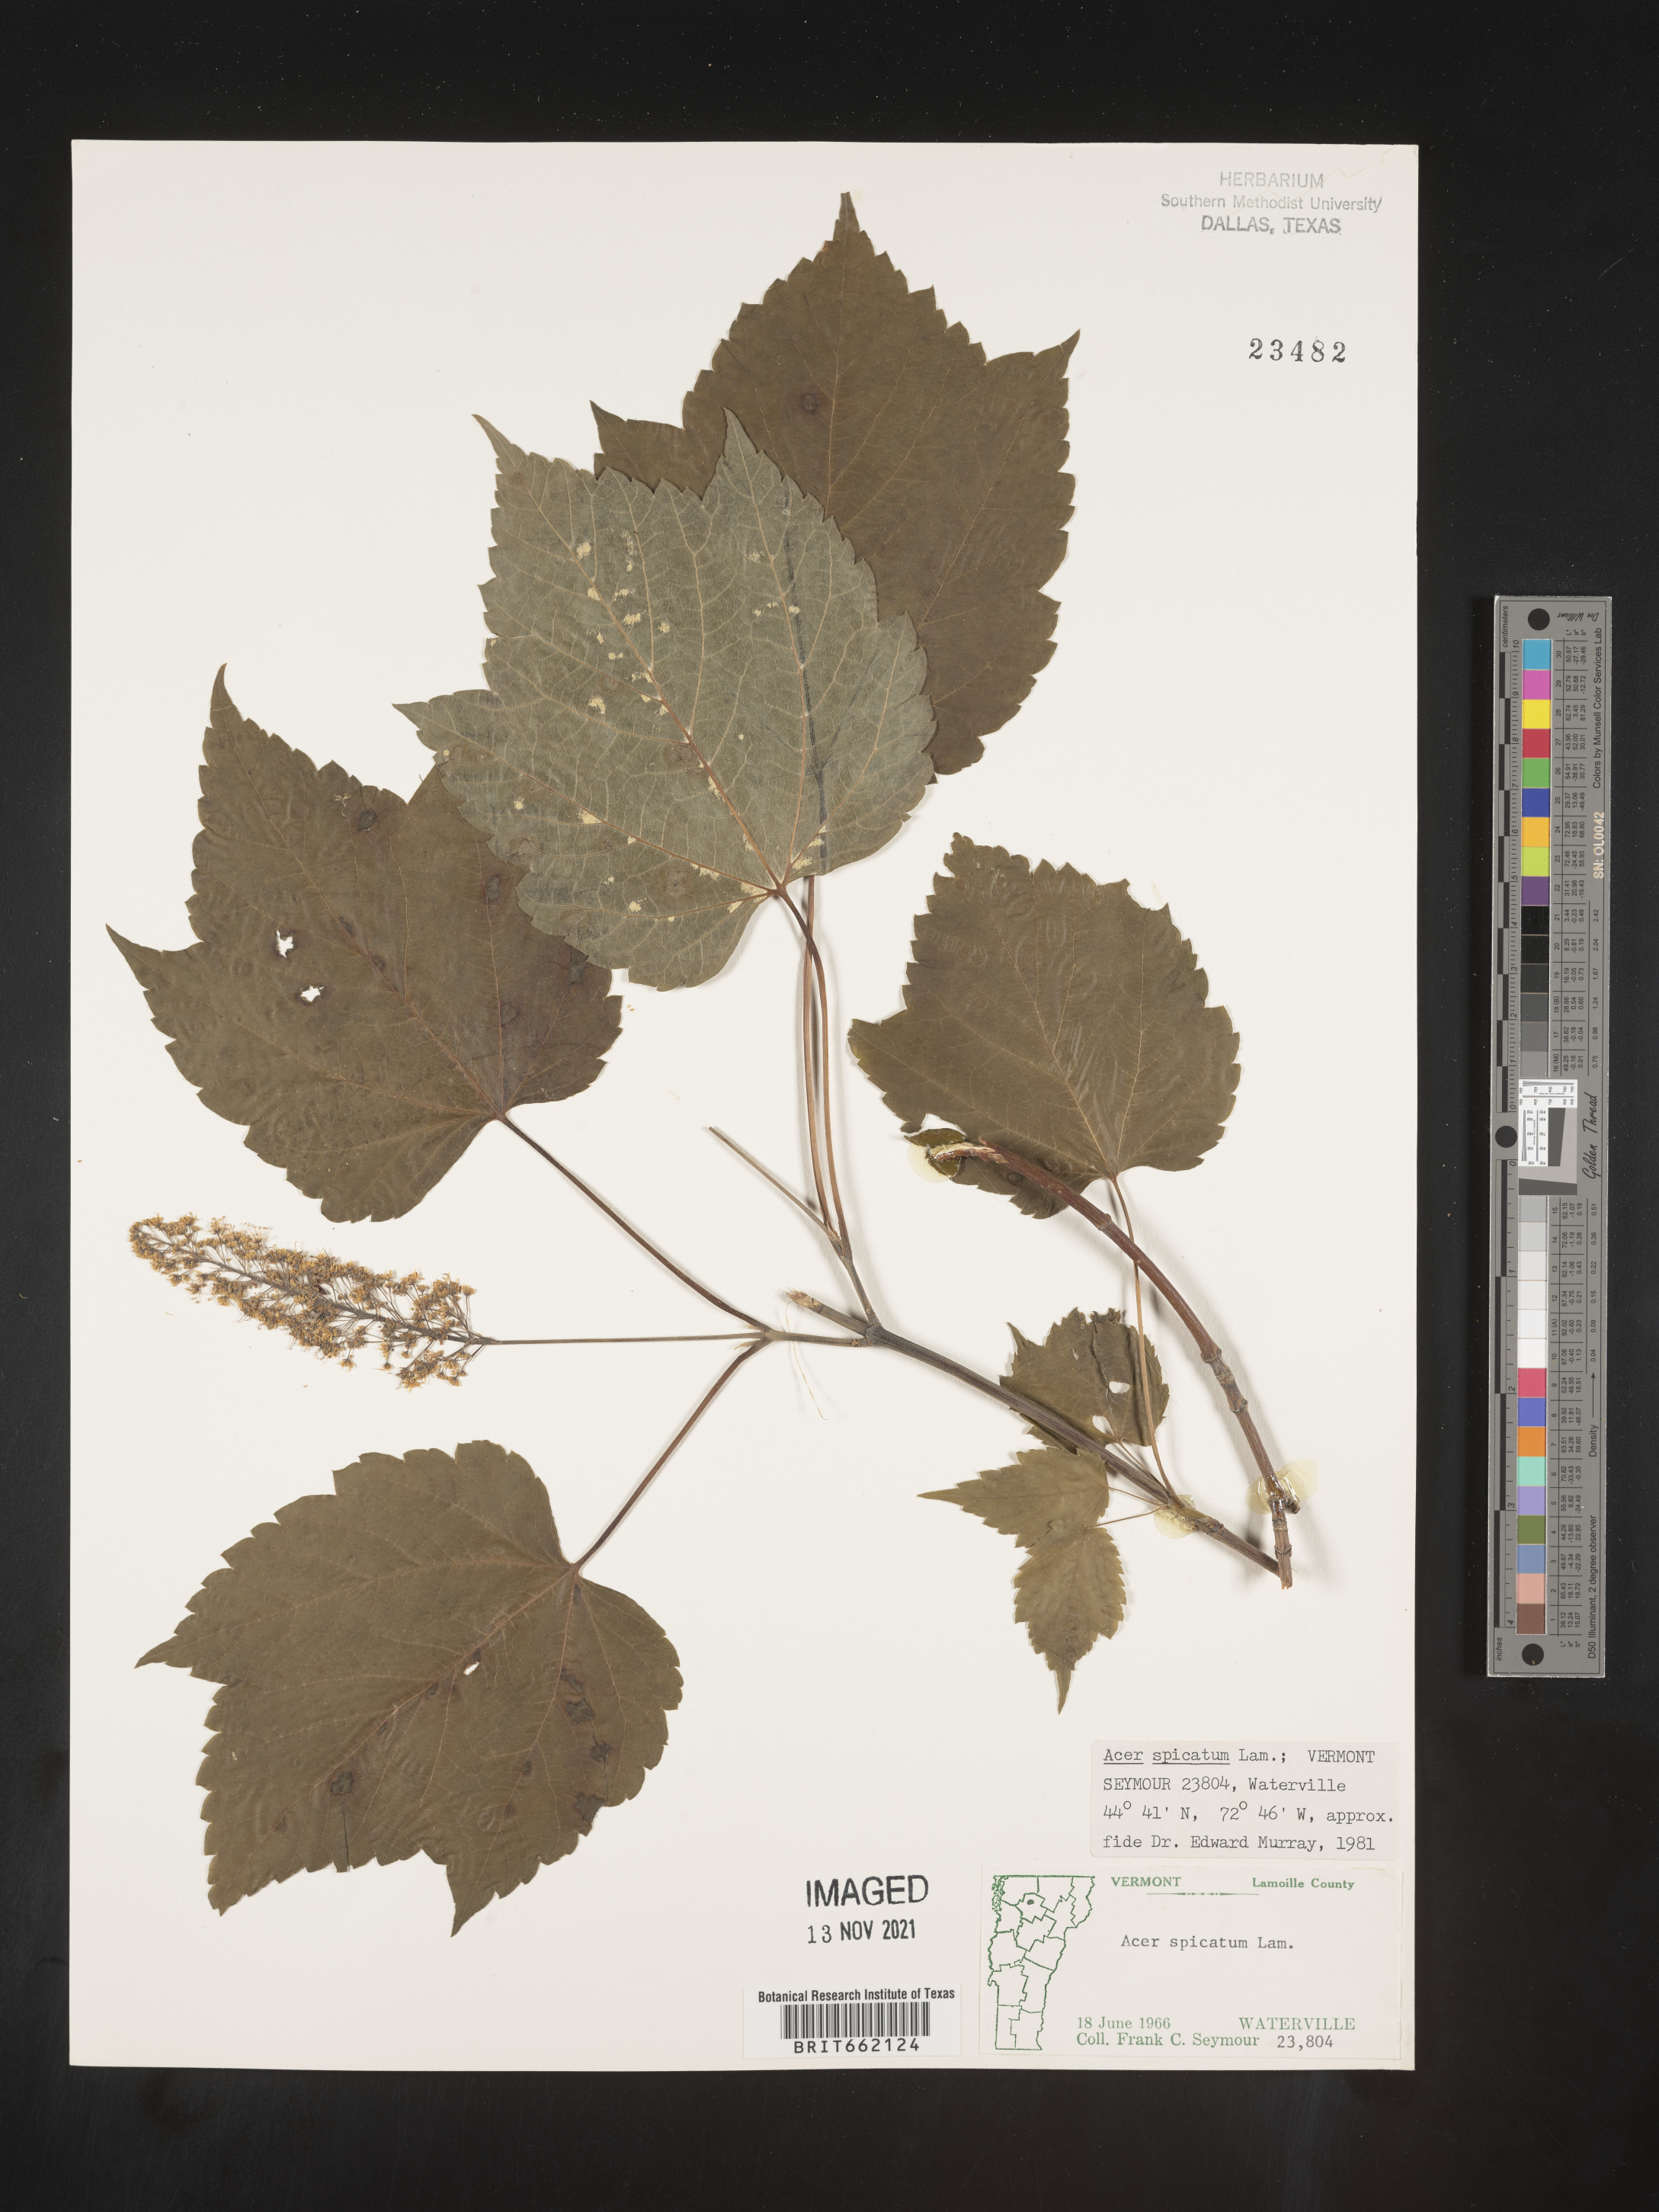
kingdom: Plantae
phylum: Tracheophyta
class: Magnoliopsida
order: Sapindales
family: Sapindaceae
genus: Acer
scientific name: Acer spicatum
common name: Mountain maple
